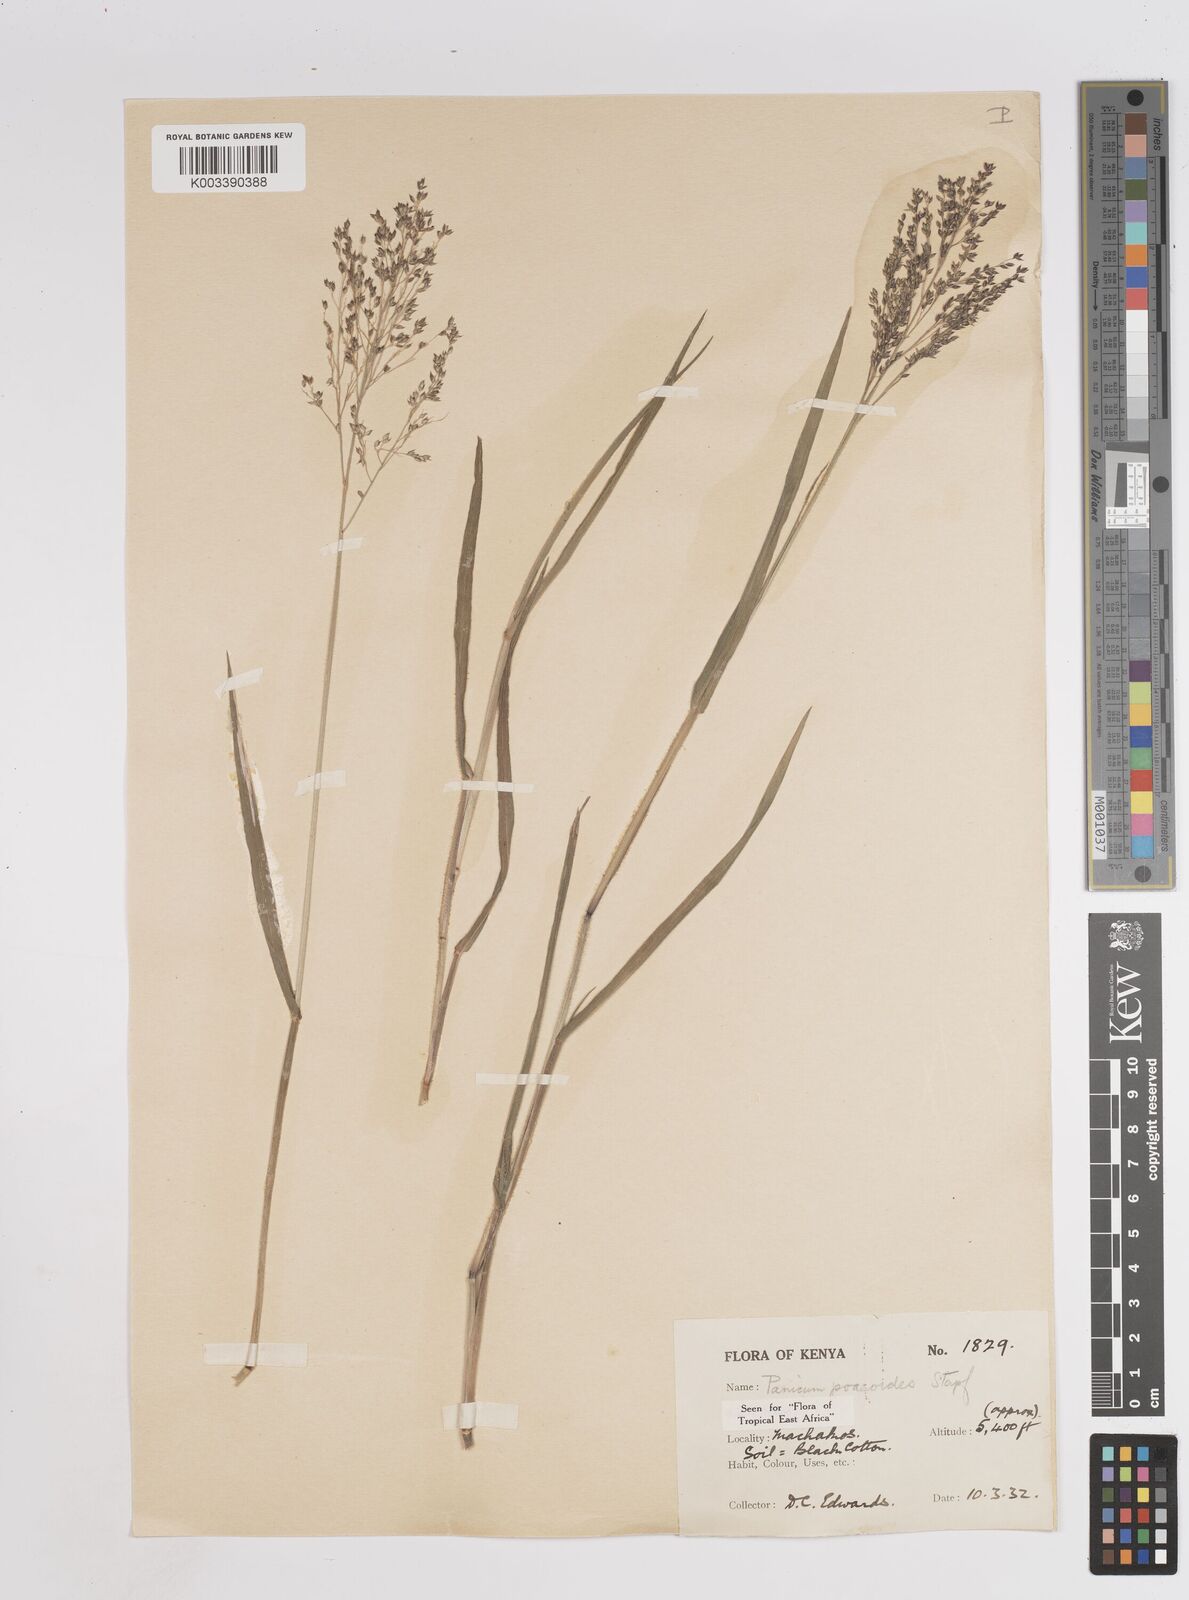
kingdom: Plantae
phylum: Tracheophyta
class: Liliopsida
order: Poales
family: Poaceae
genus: Panicum
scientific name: Panicum
